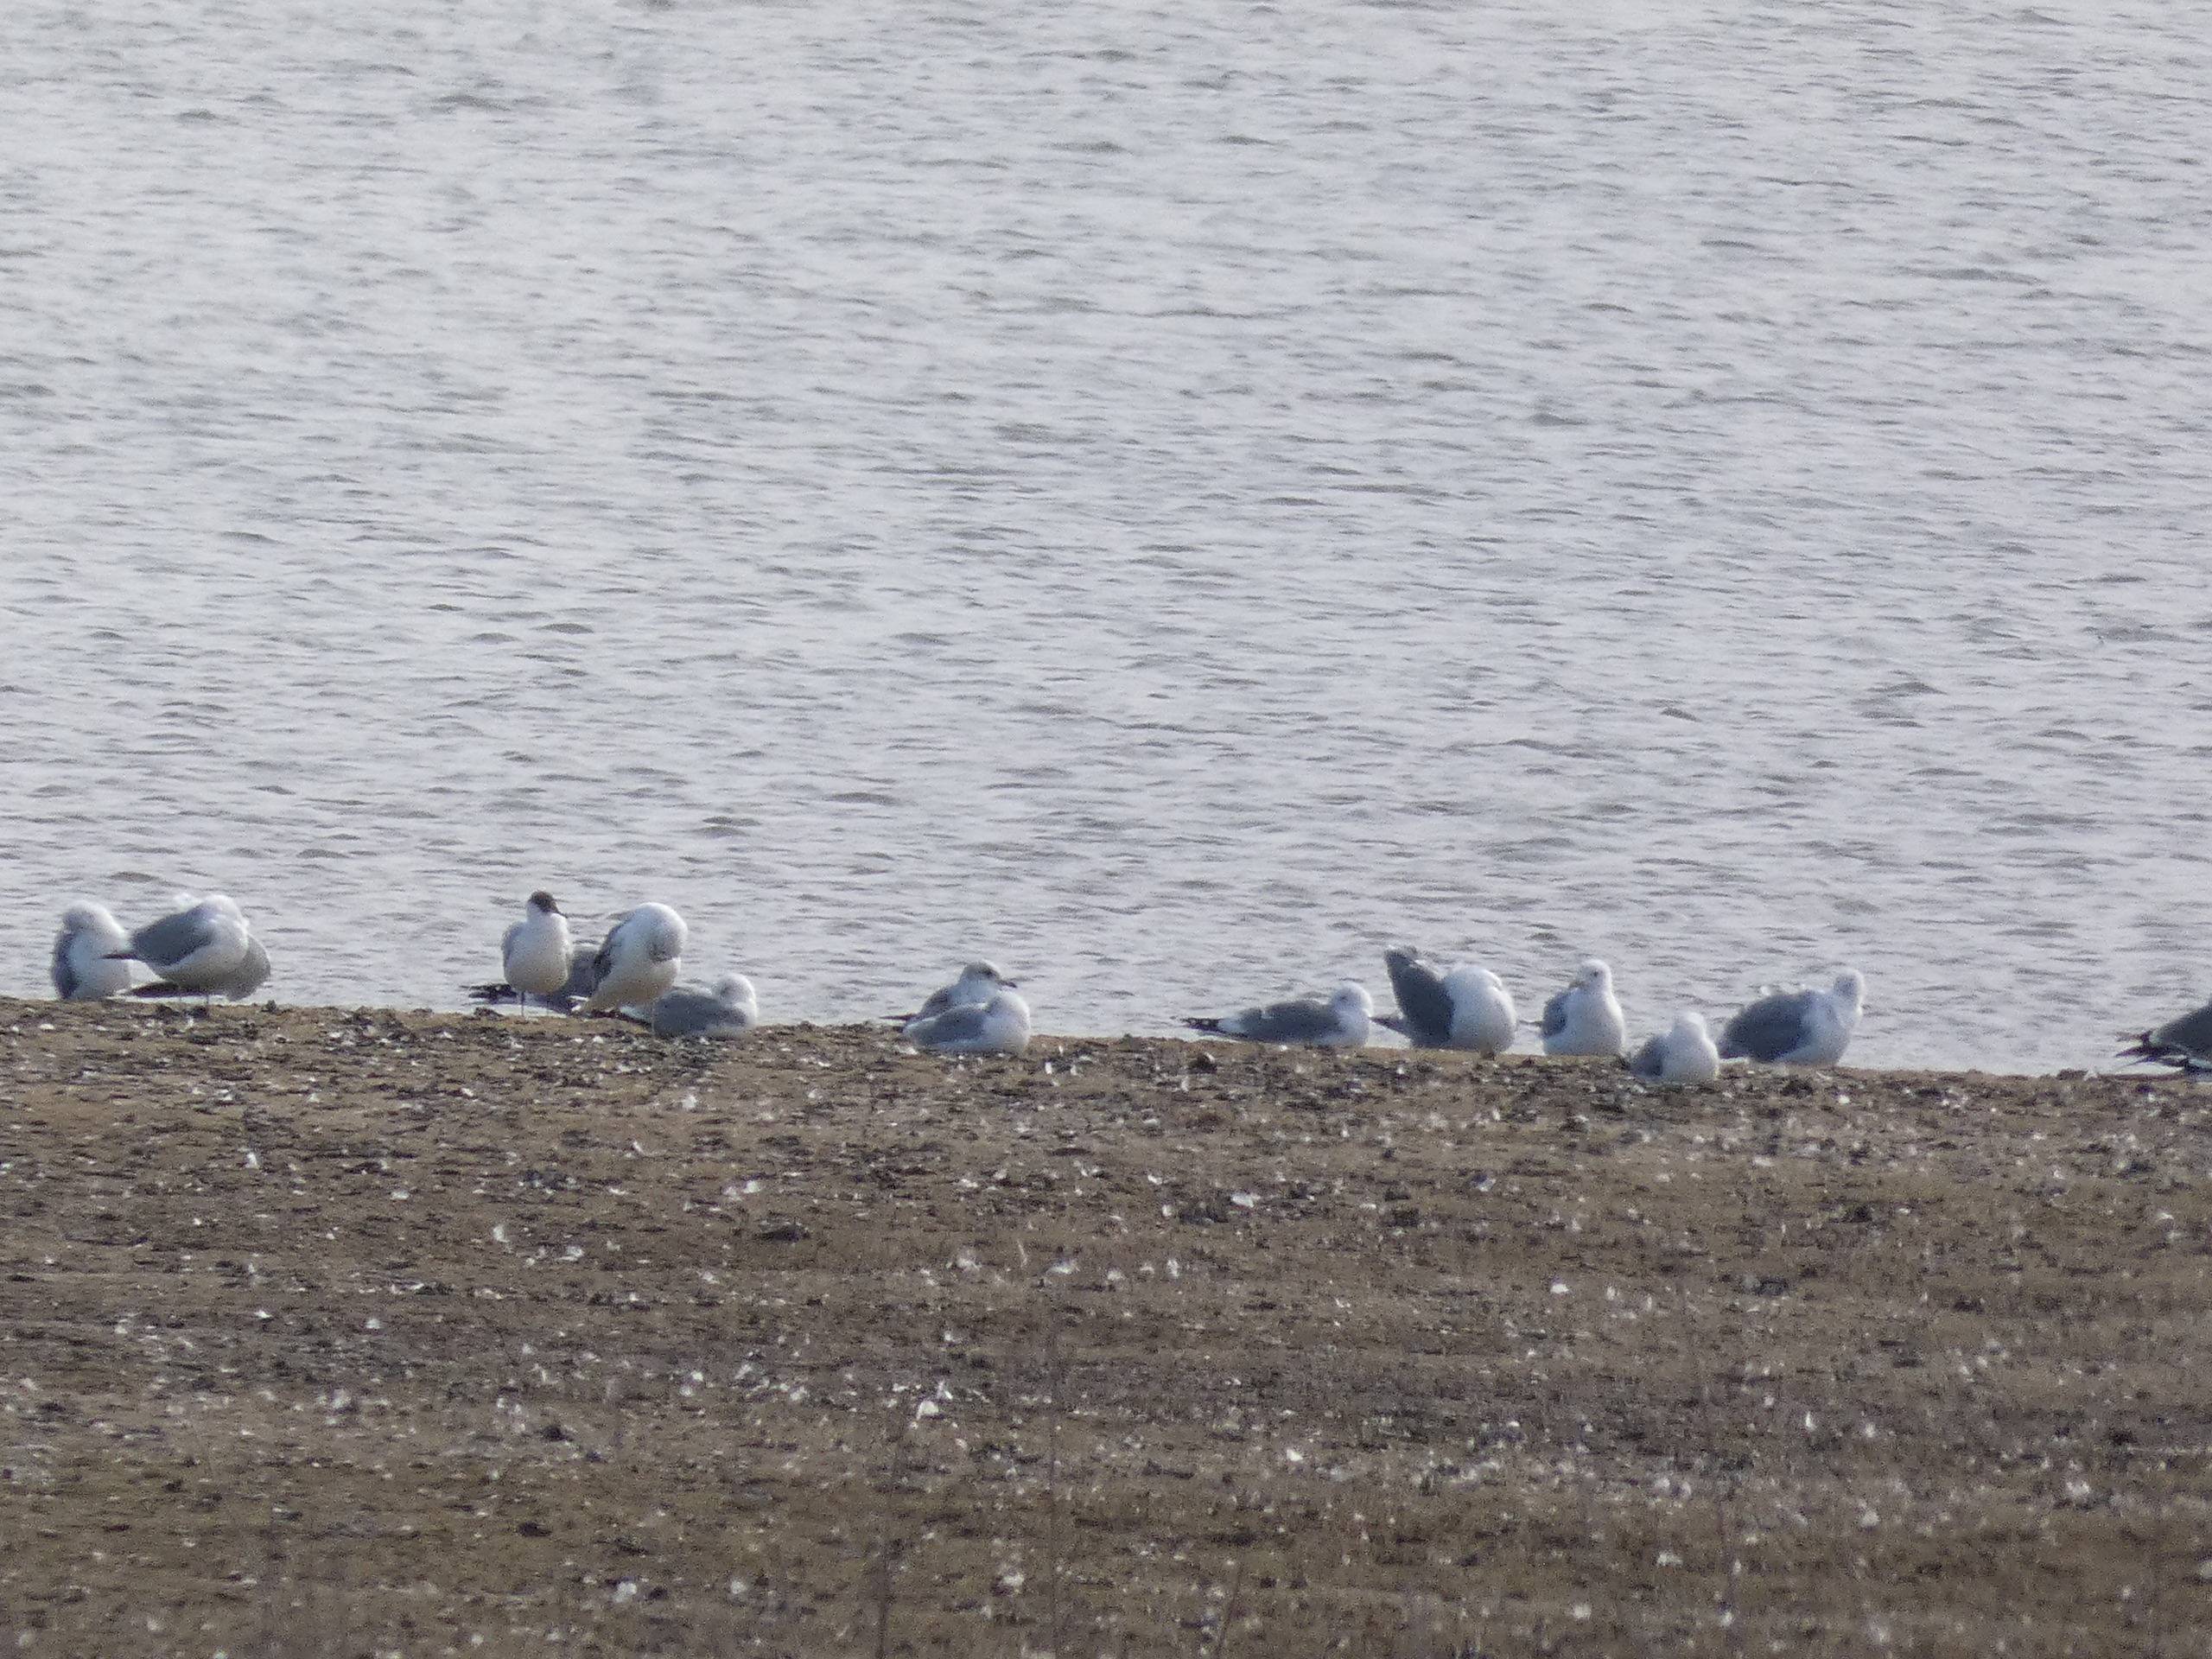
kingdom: Animalia
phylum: Chordata
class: Aves
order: Charadriiformes
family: Laridae
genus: Larus
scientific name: Larus canus
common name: Stormmåge
